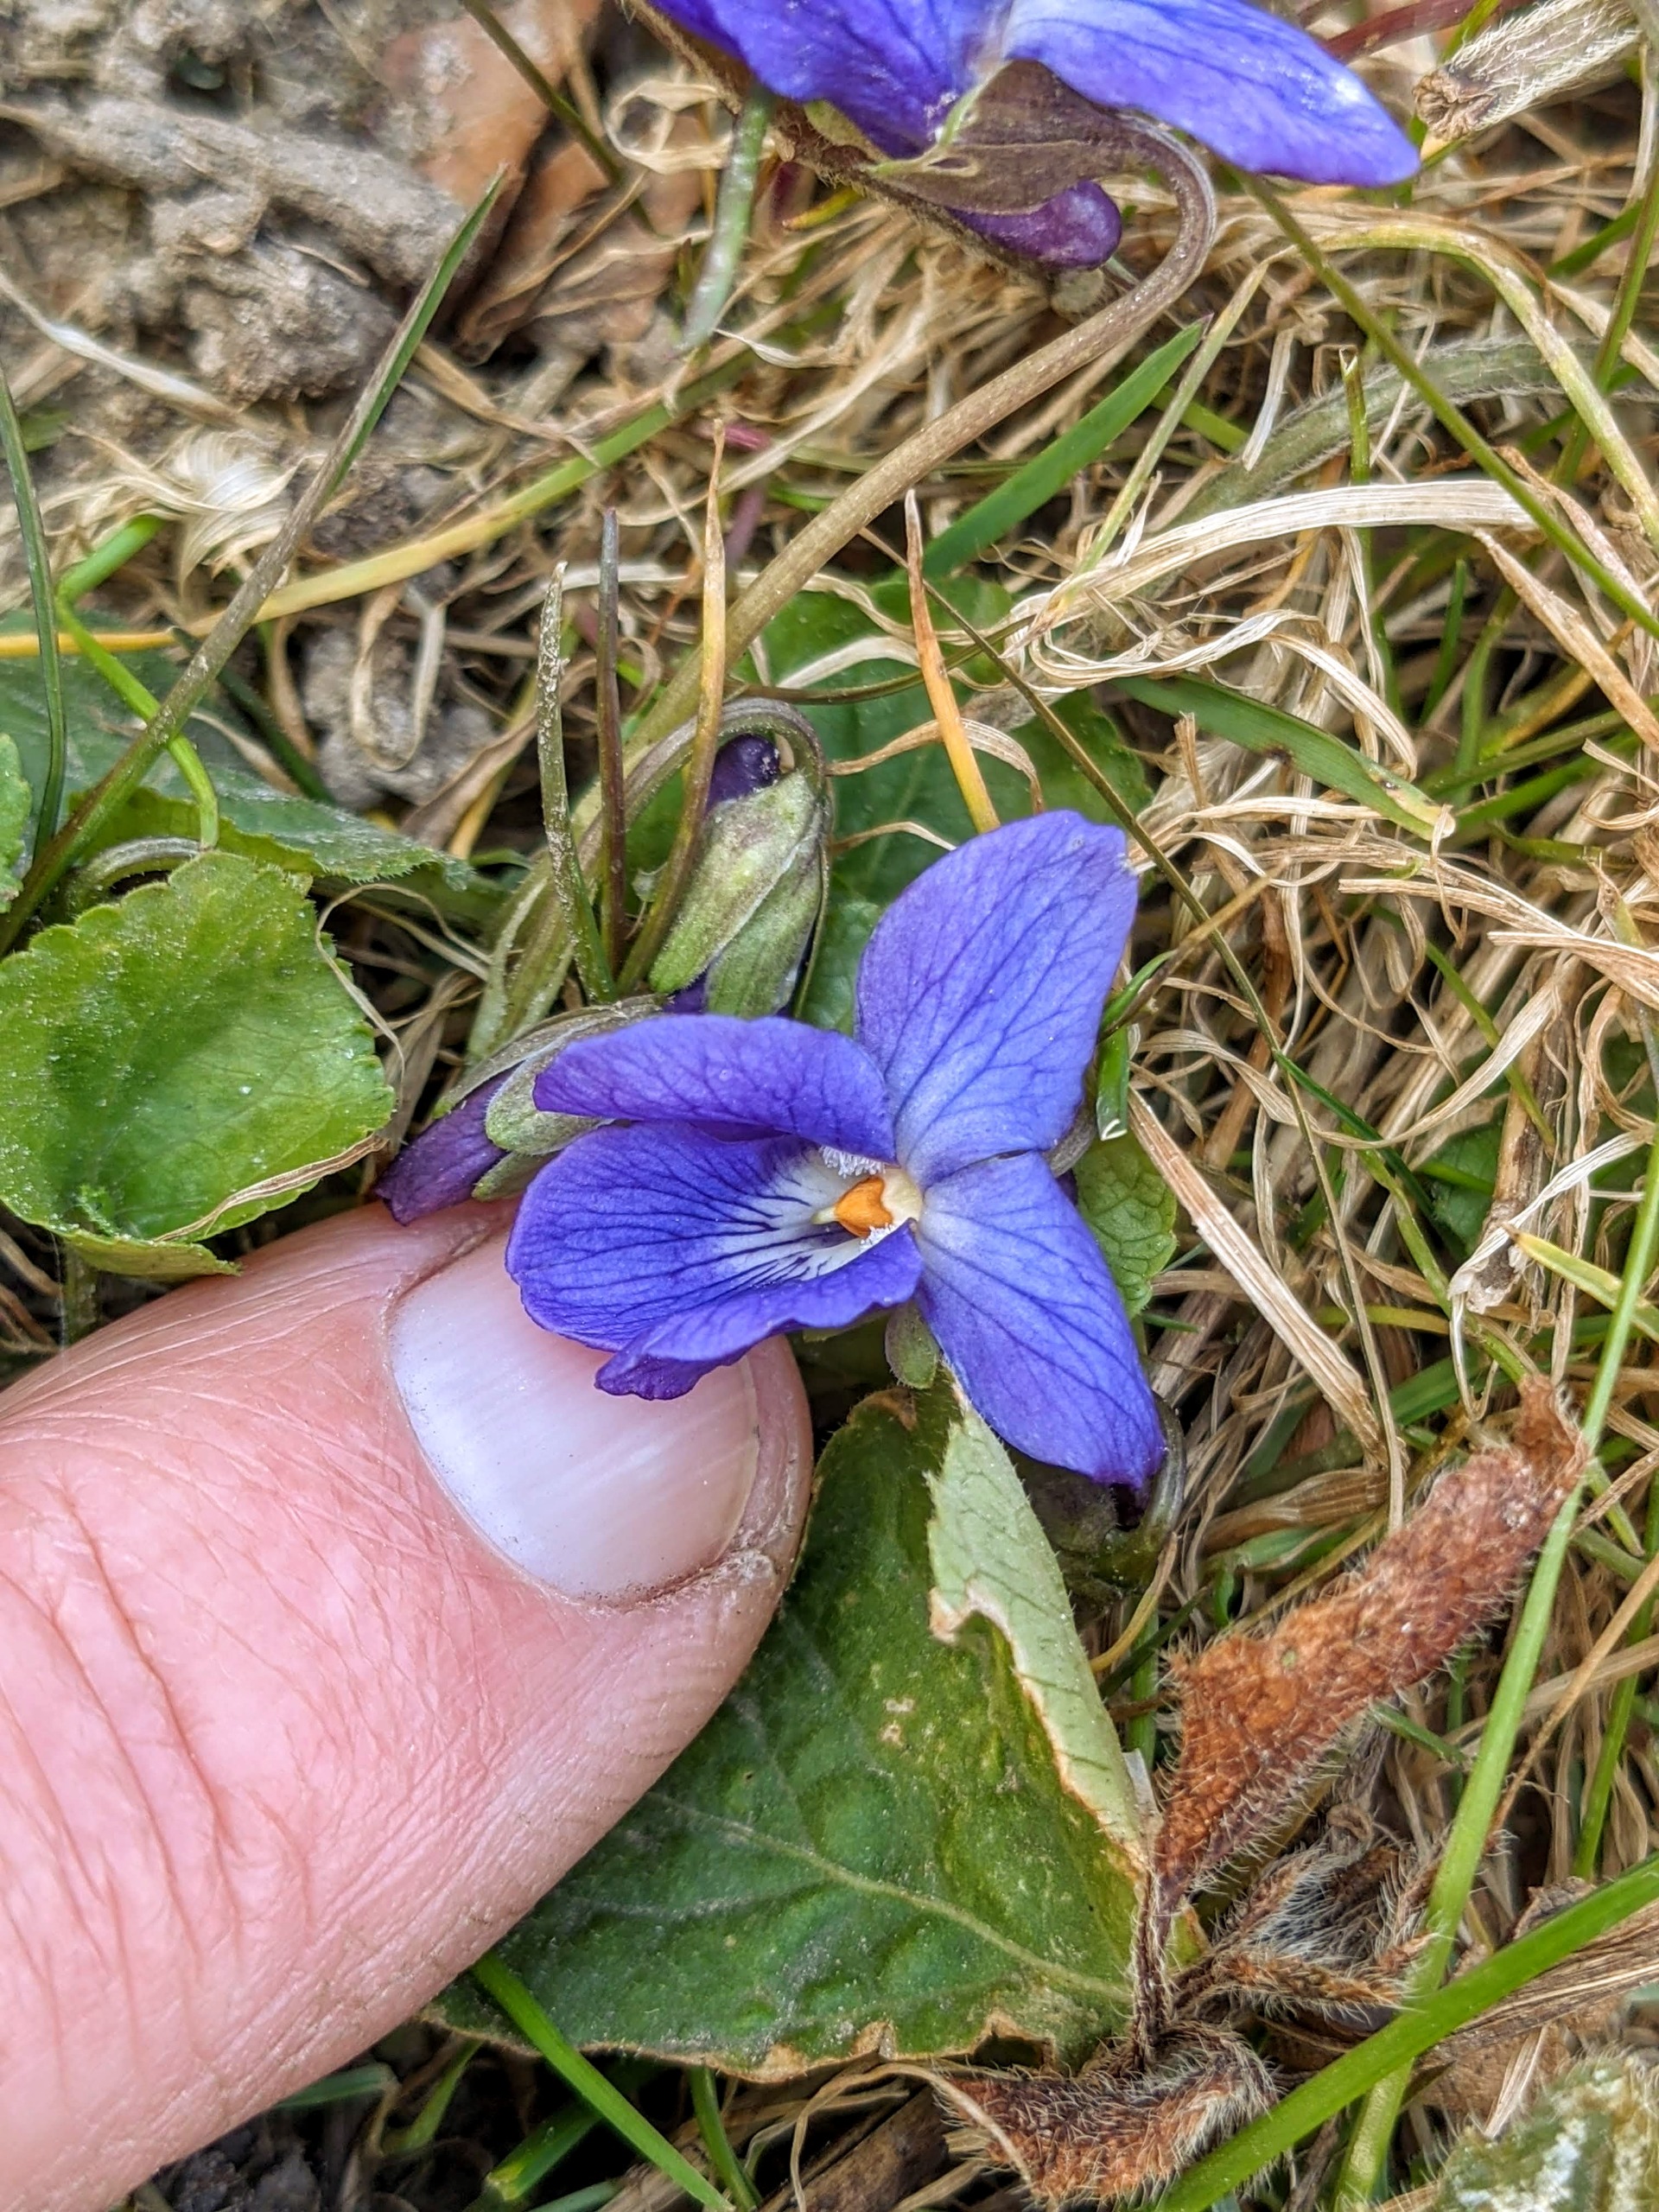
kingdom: Plantae
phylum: Tracheophyta
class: Magnoliopsida
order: Malpighiales
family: Violaceae
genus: Viola
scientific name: Viola odorata
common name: Marts-viol
